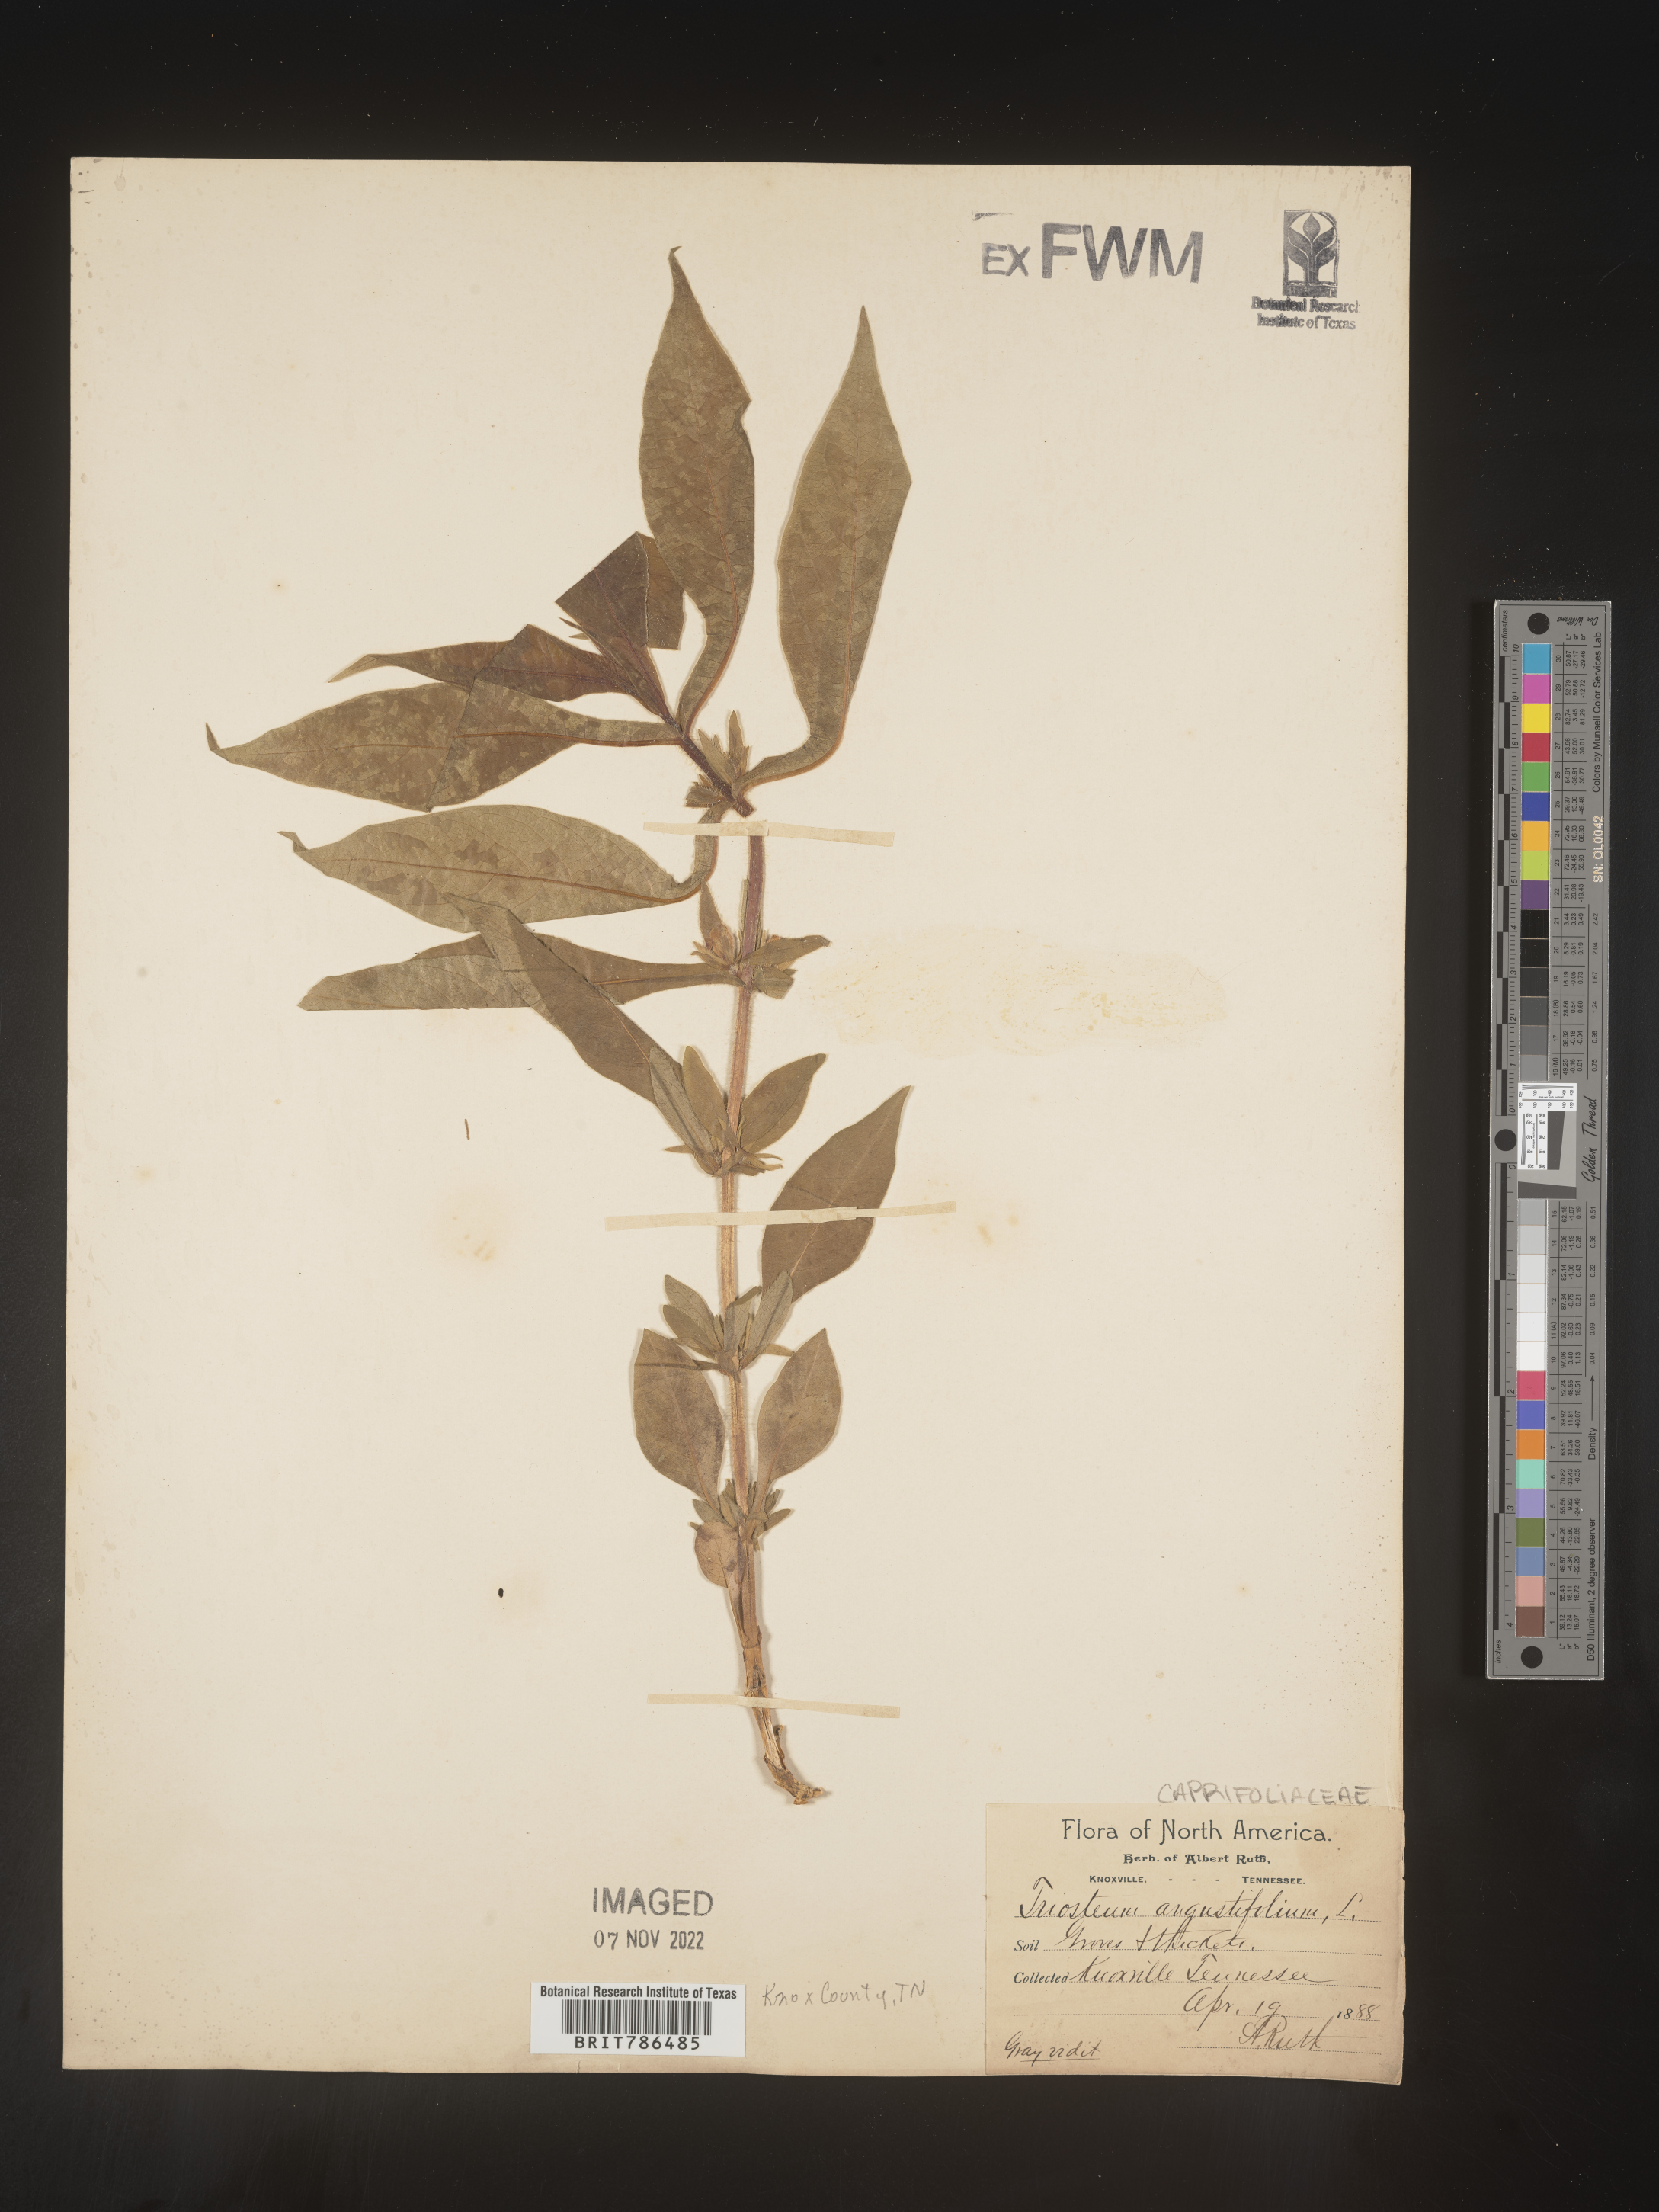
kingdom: Plantae
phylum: Tracheophyta
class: Magnoliopsida
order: Dipsacales
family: Caprifoliaceae
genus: Triosteum
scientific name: Triosteum angustifolium
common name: Narrow-leaved horse-gentian
